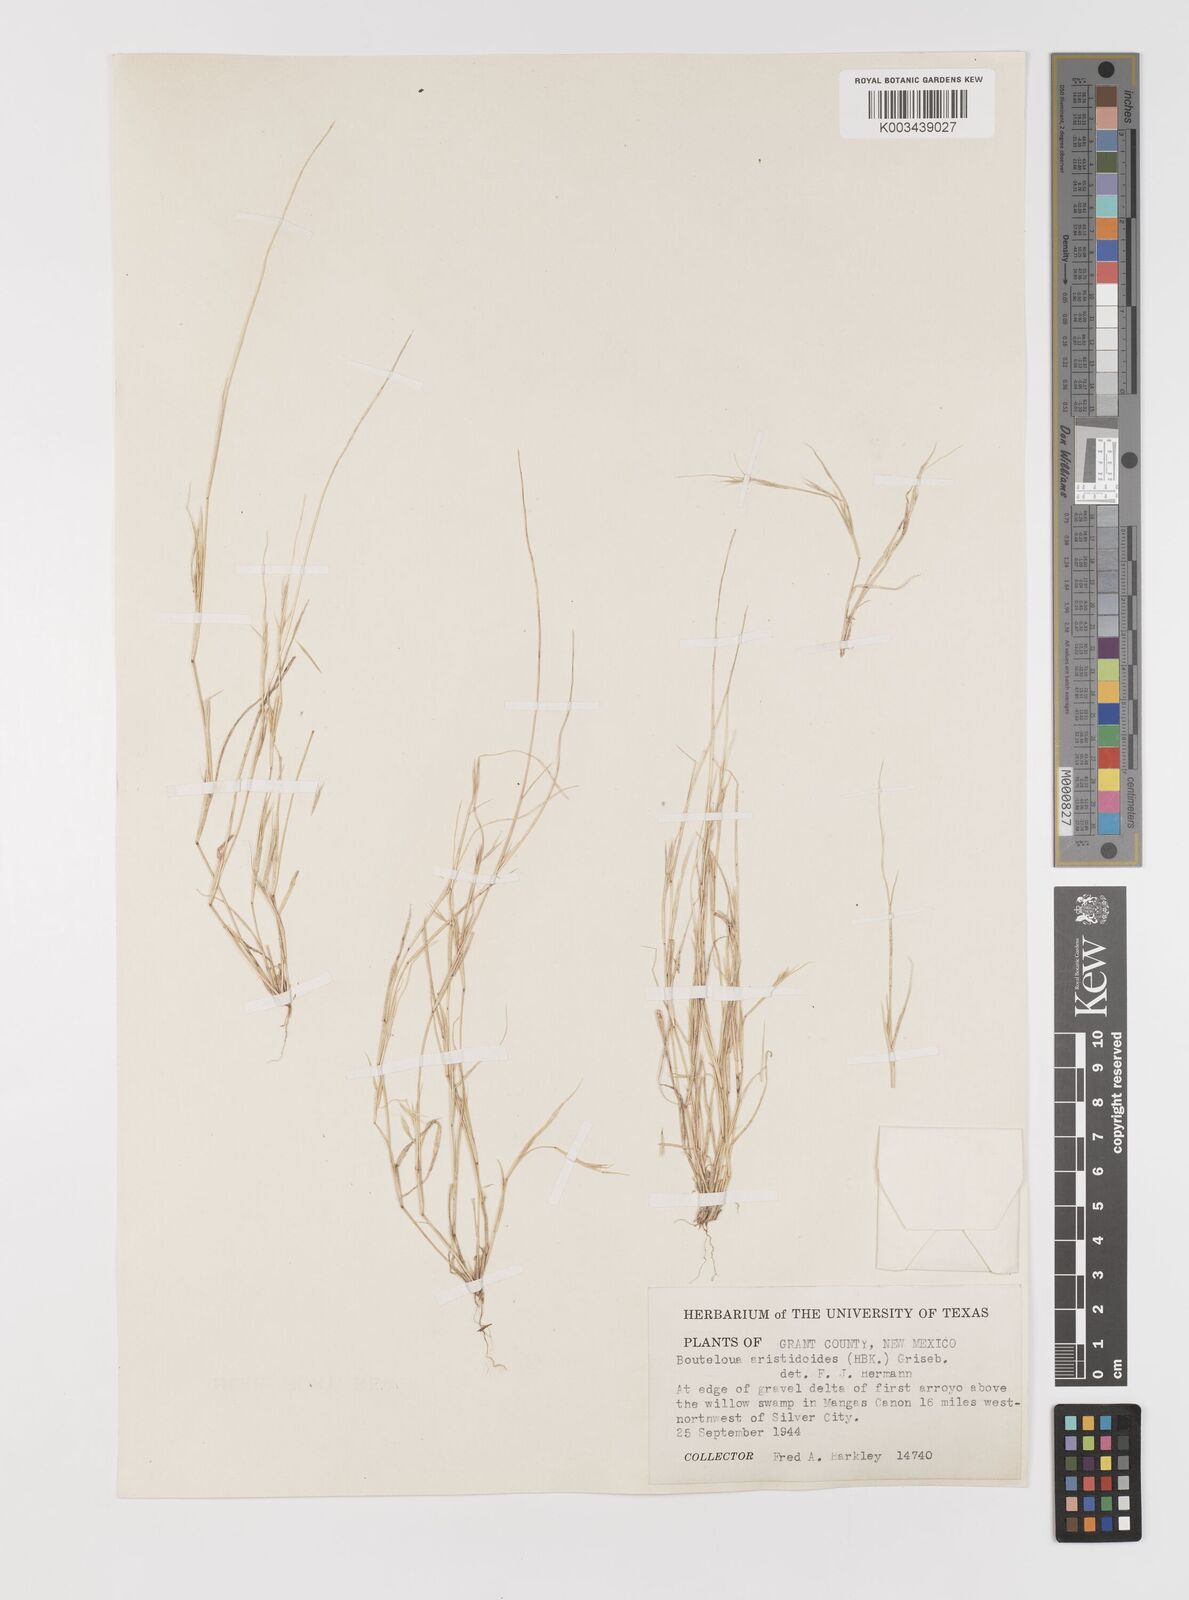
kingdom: Plantae
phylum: Tracheophyta
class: Liliopsida
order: Poales
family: Poaceae
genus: Bouteloua
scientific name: Bouteloua aristidoides
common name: Needle grama
